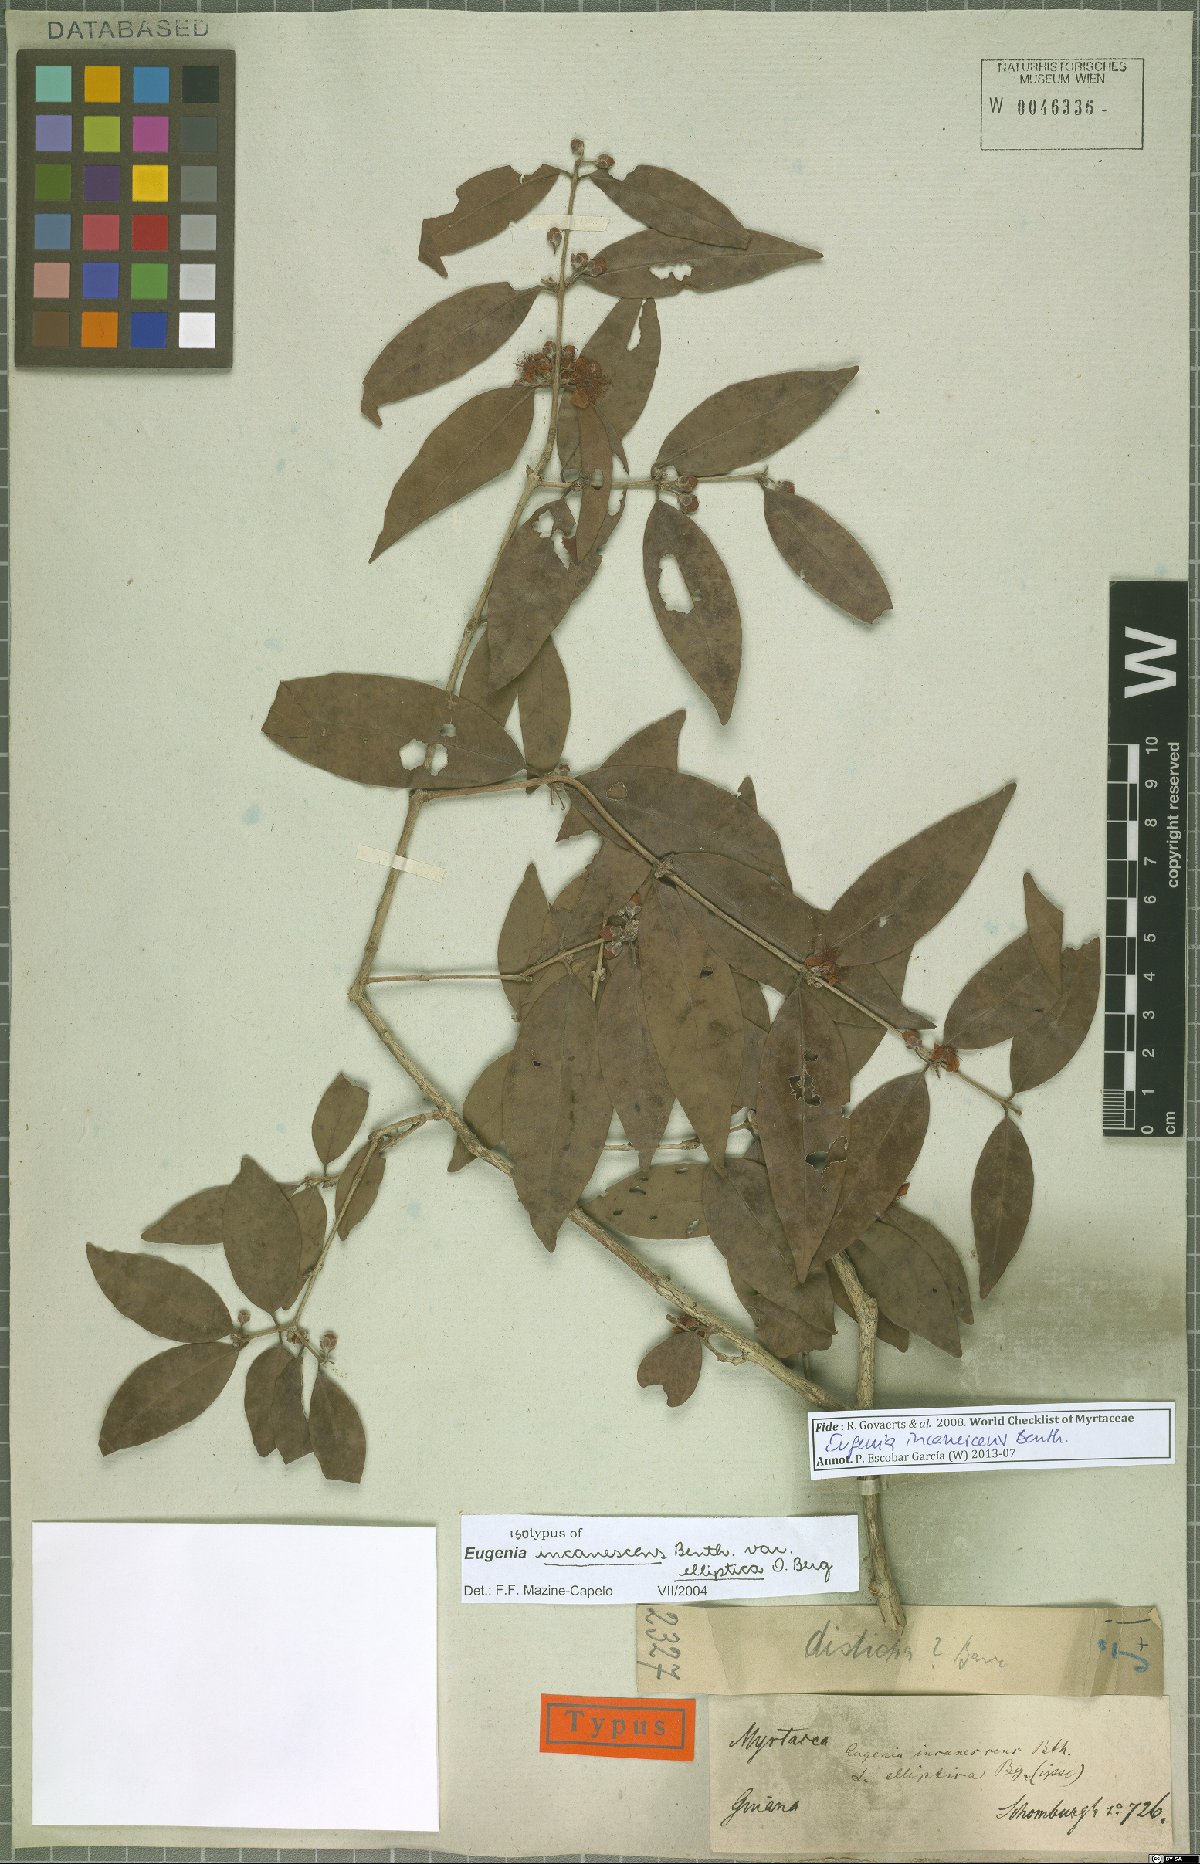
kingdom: Plantae
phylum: Tracheophyta
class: Magnoliopsida
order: Myrtales
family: Myrtaceae
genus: Eugenia
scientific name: Eugenia incanescens
